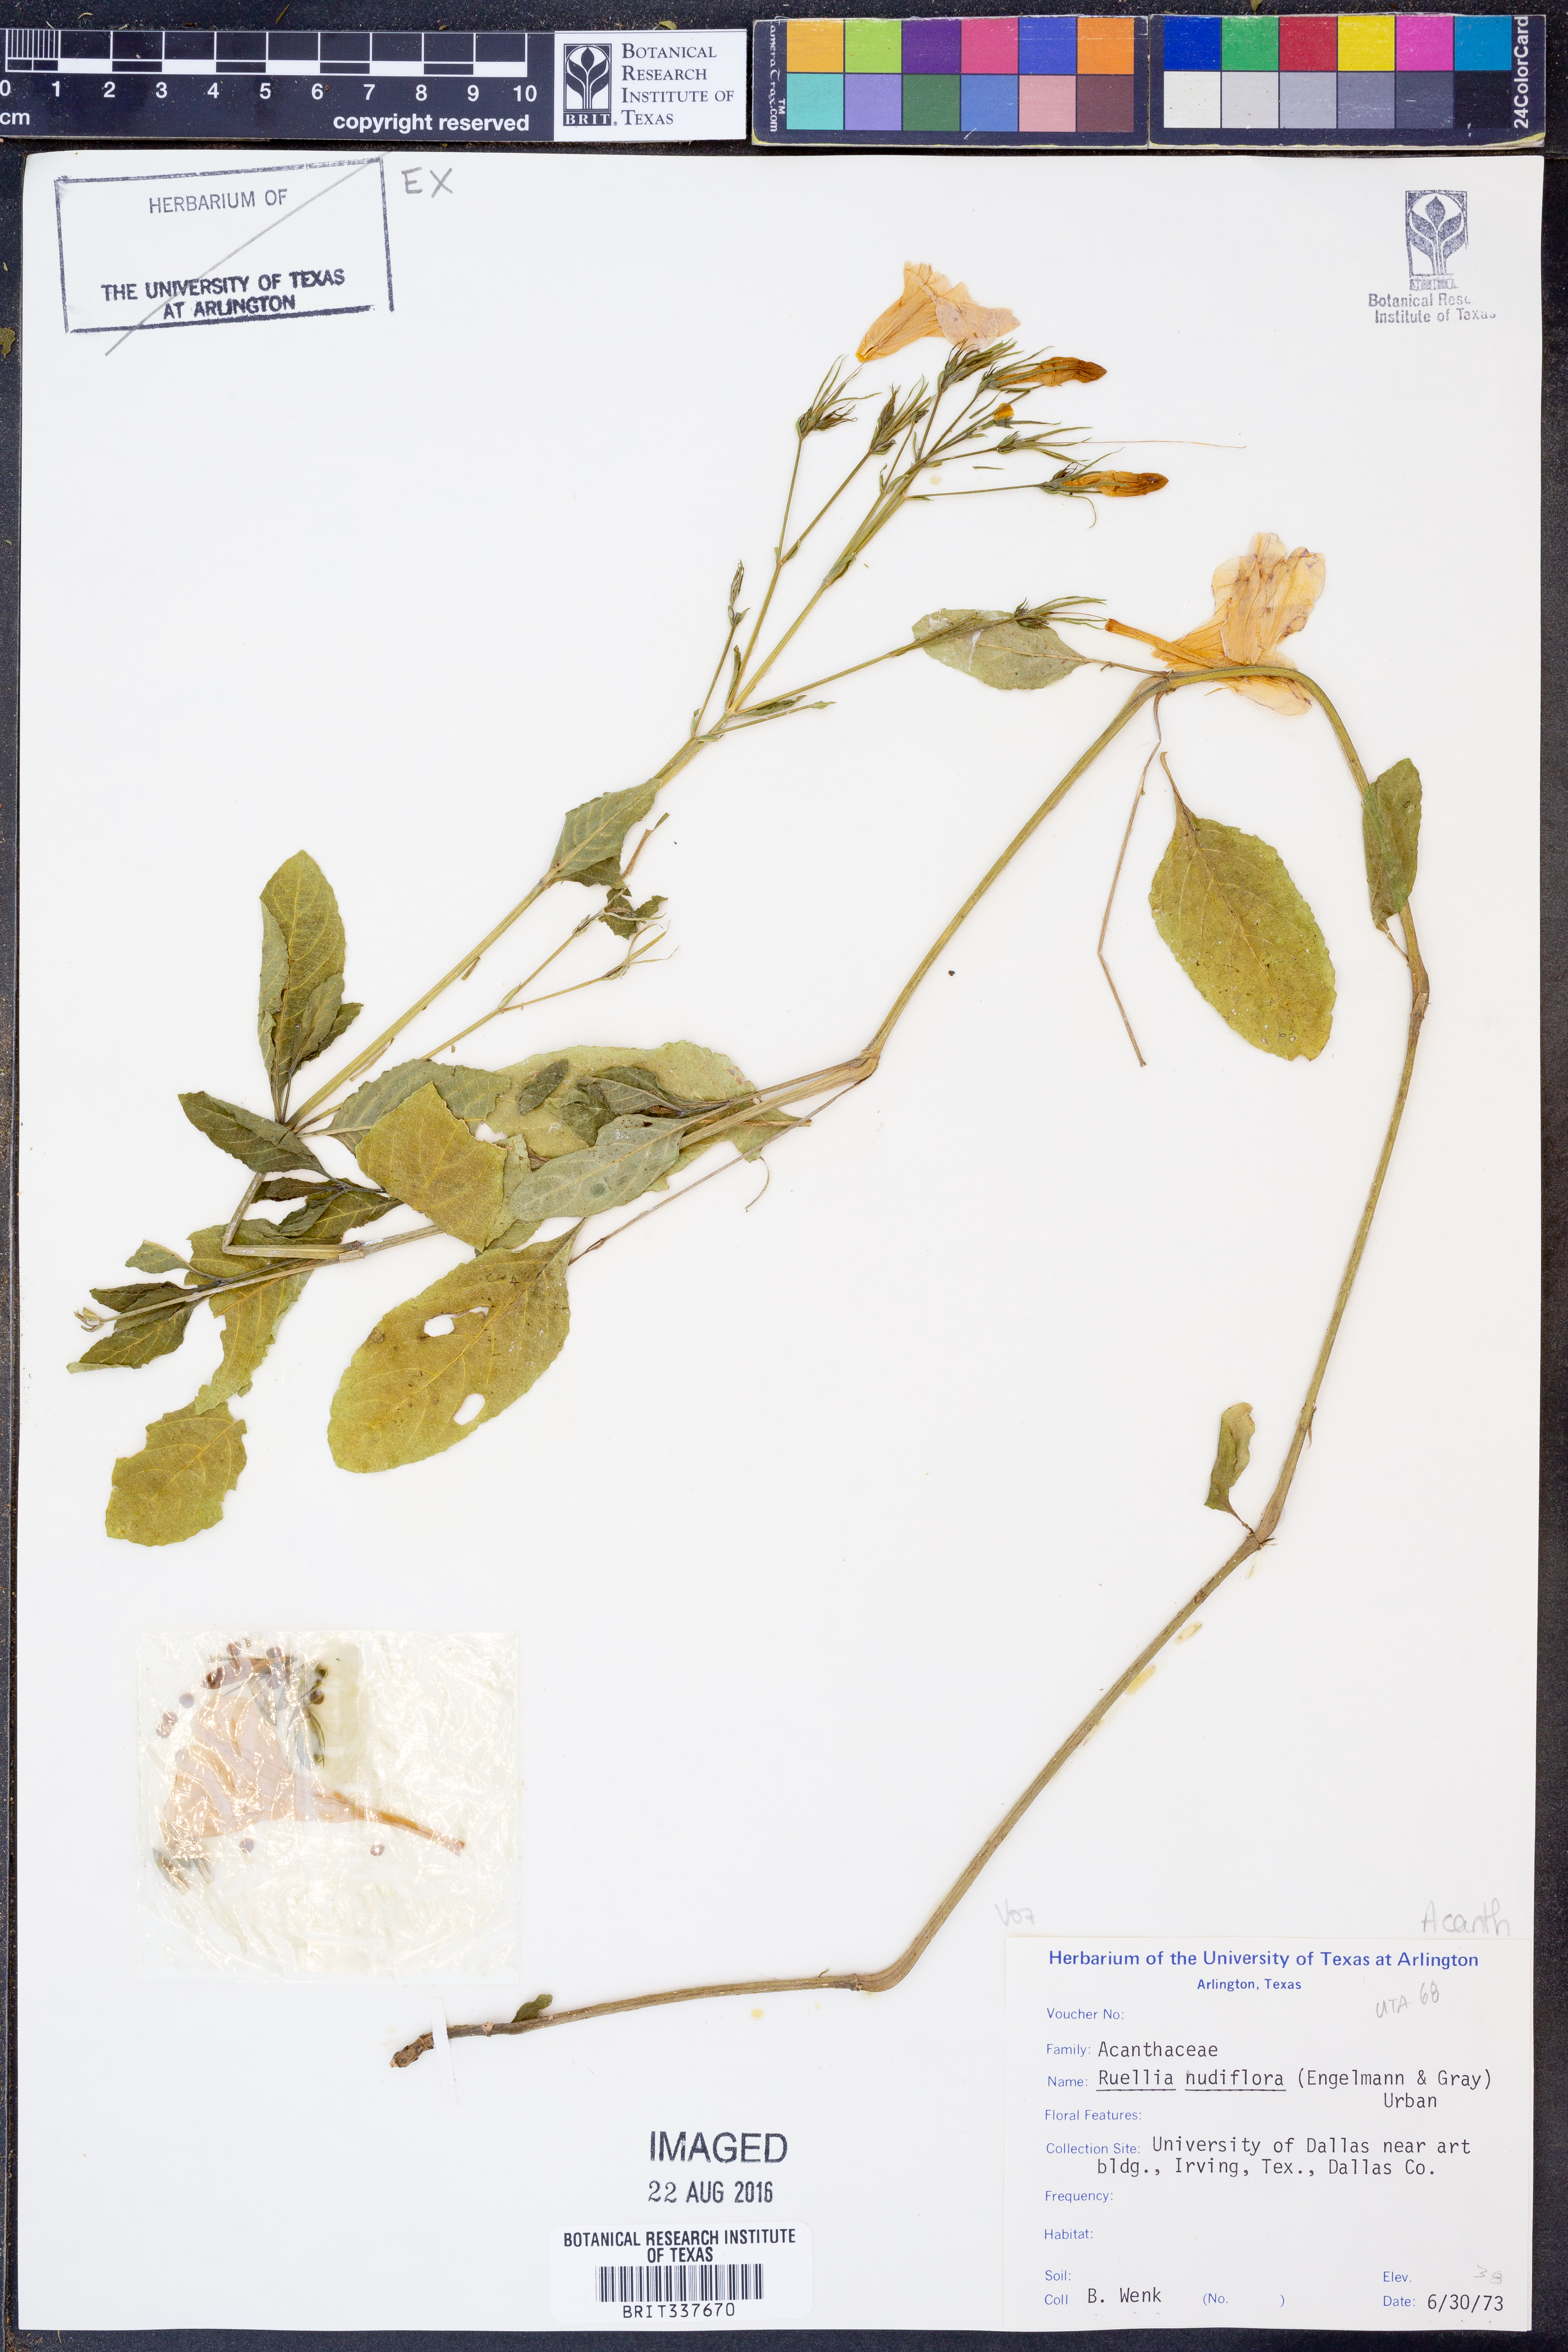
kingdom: Plantae
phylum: Tracheophyta
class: Magnoliopsida
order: Lamiales
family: Acanthaceae
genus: Ruellia
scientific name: Ruellia ciliatiflora
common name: Hairyflower wild petunia
